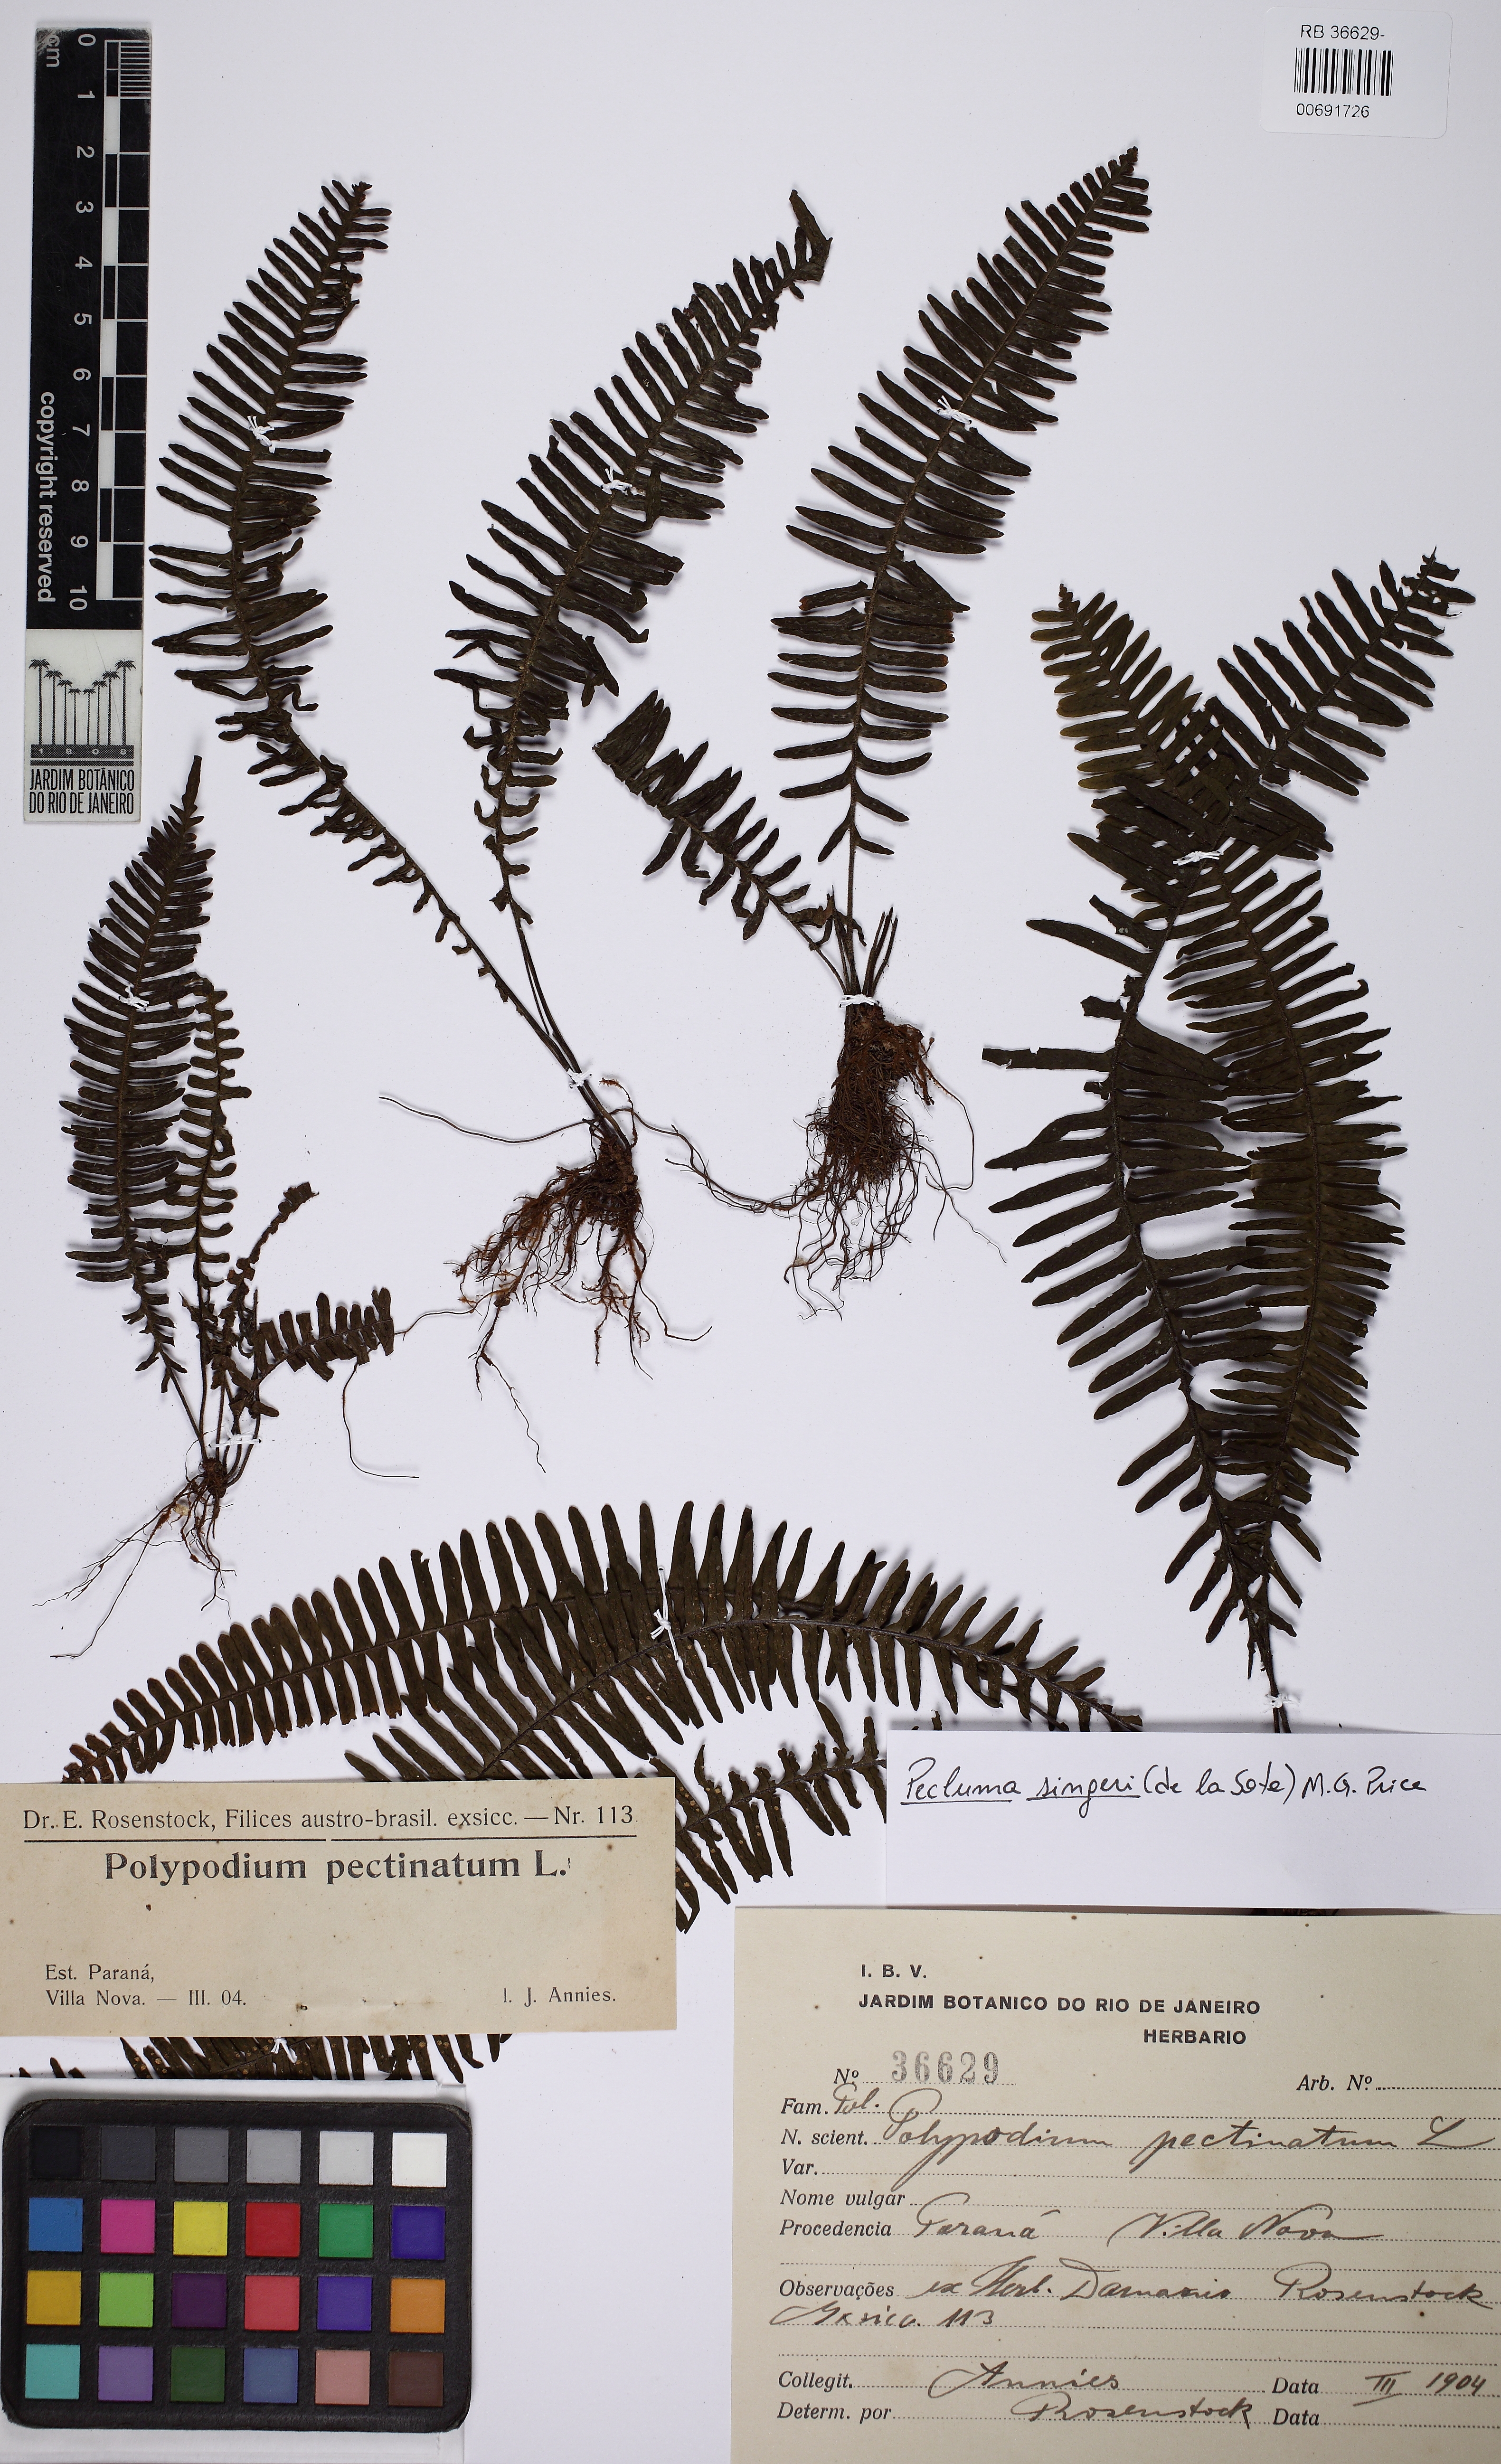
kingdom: Plantae
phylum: Tracheophyta
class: Polypodiopsida
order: Polypodiales
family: Polypodiaceae
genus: Pecluma
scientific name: Pecluma singeri
